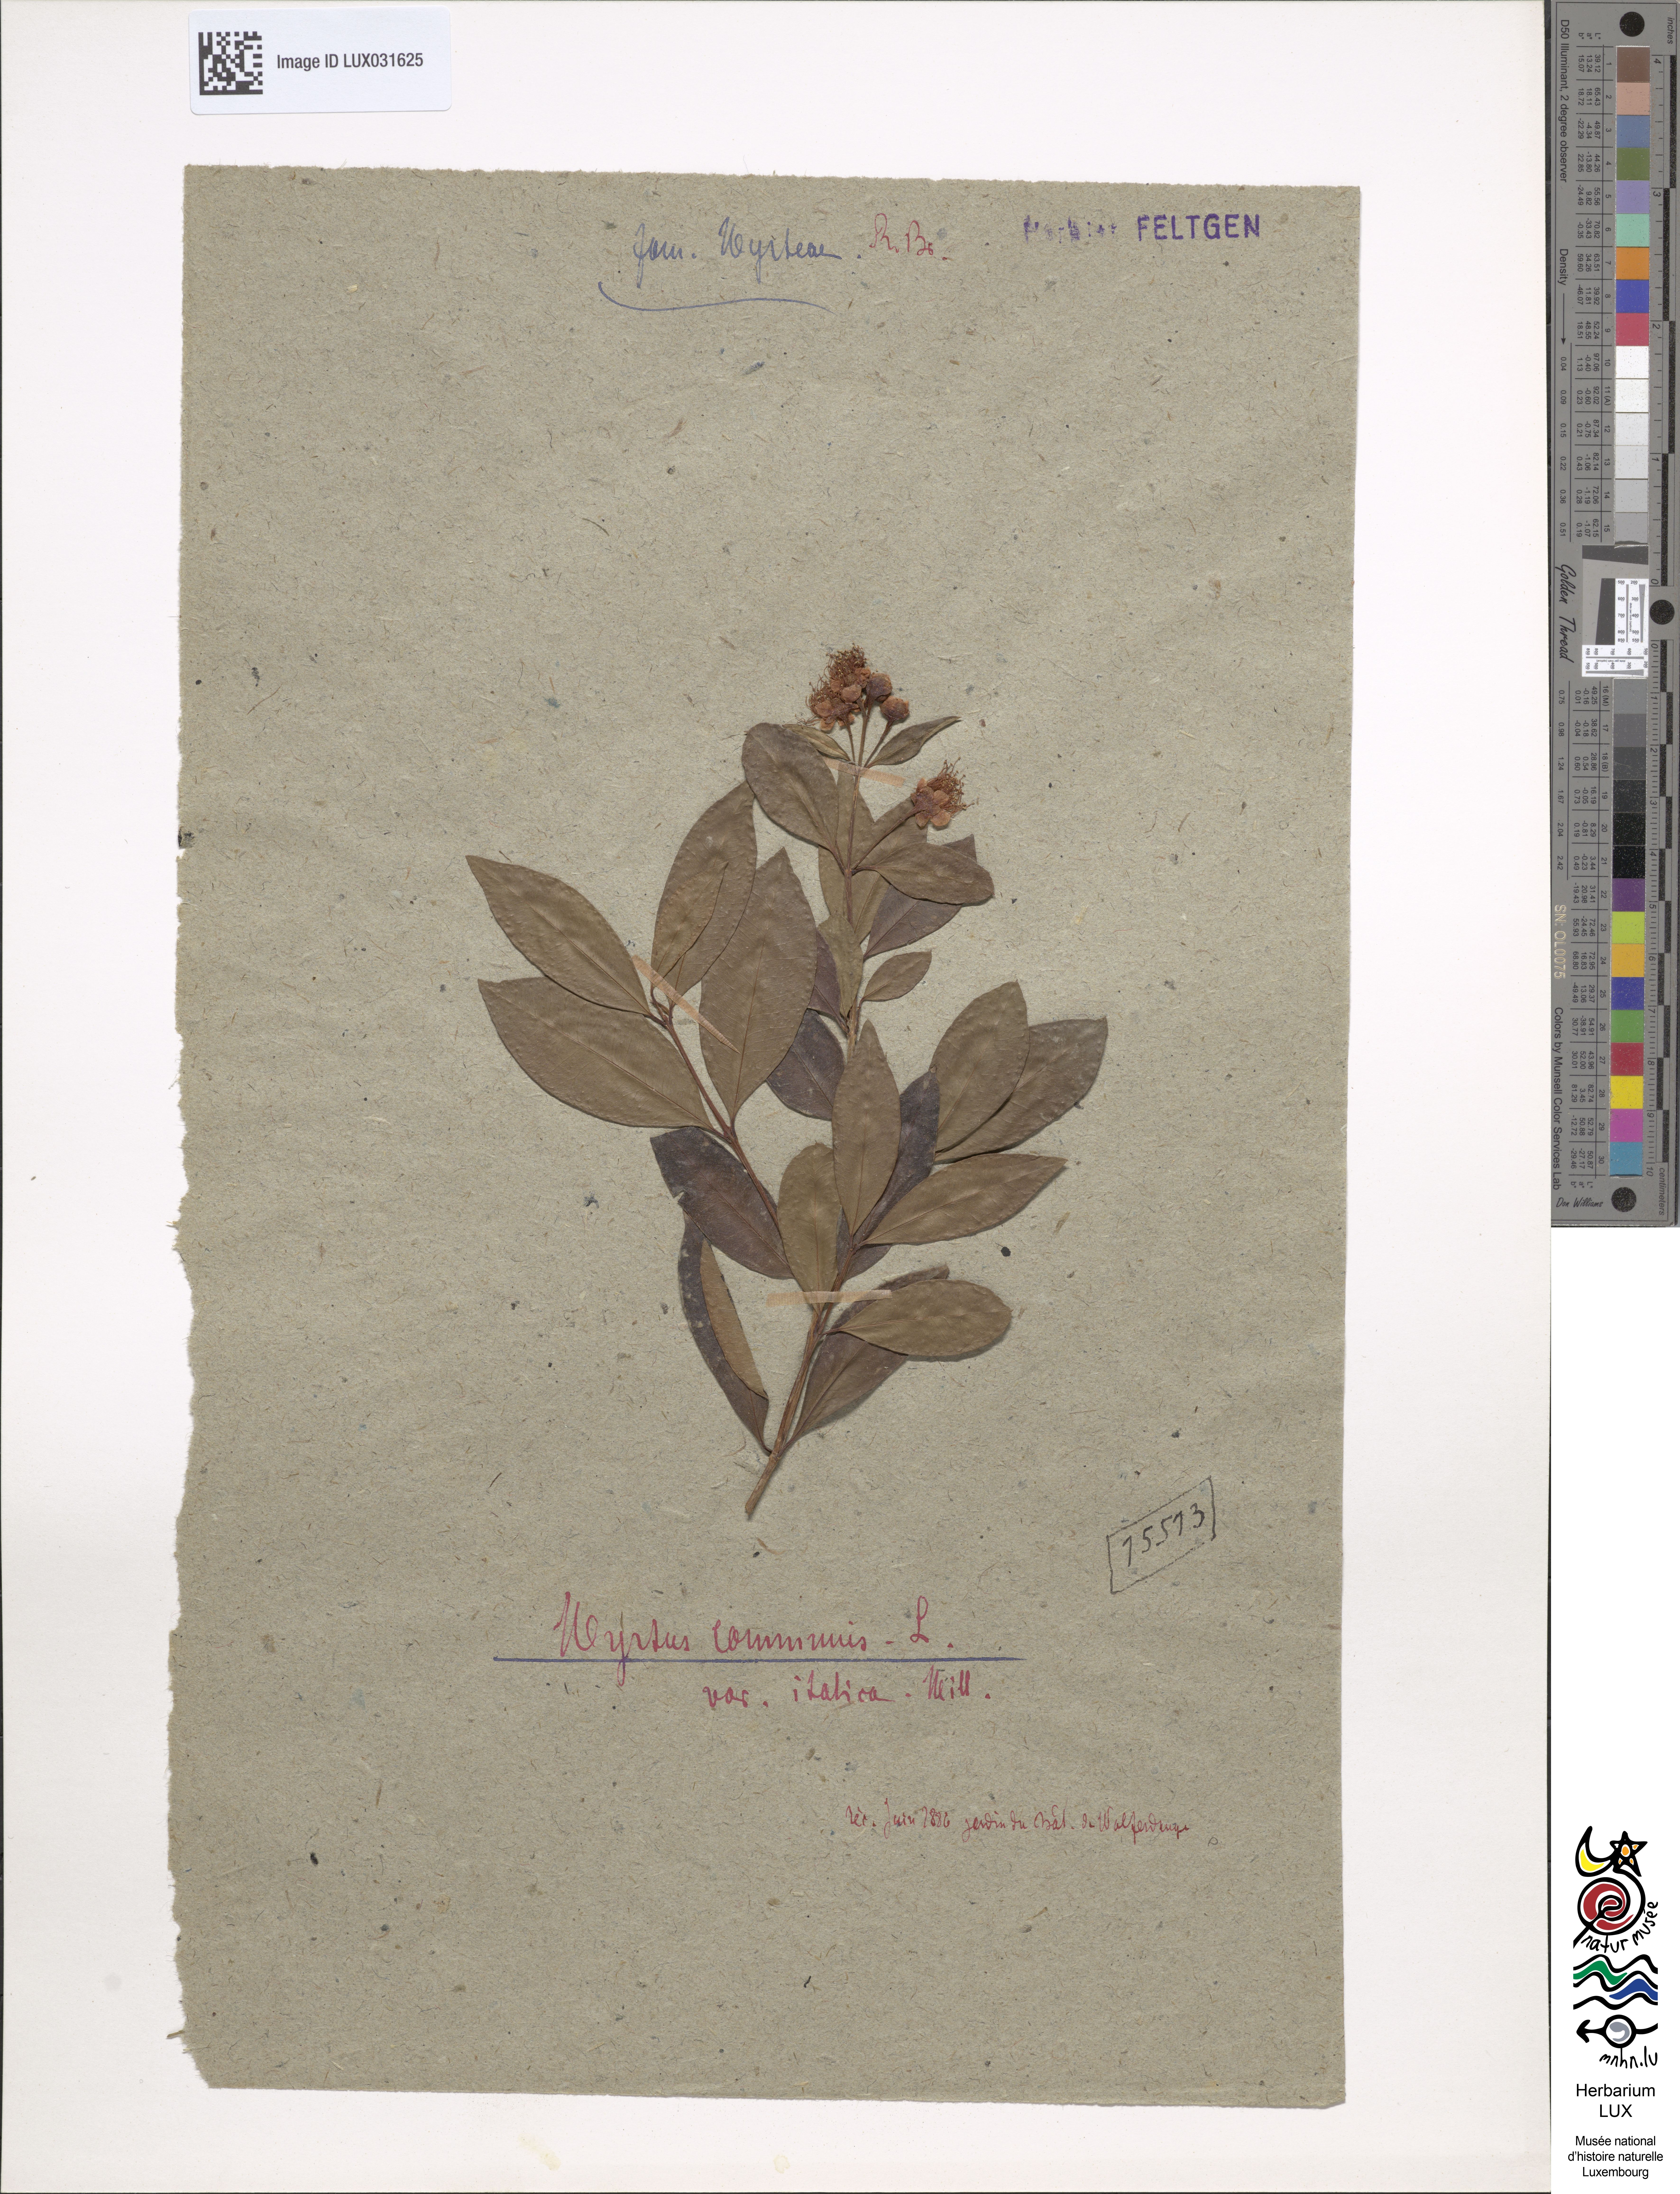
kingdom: Plantae
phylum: Tracheophyta
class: Magnoliopsida
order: Myrtales
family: Myrtaceae
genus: Myrtus
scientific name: Myrtus communis
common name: Myrtle
